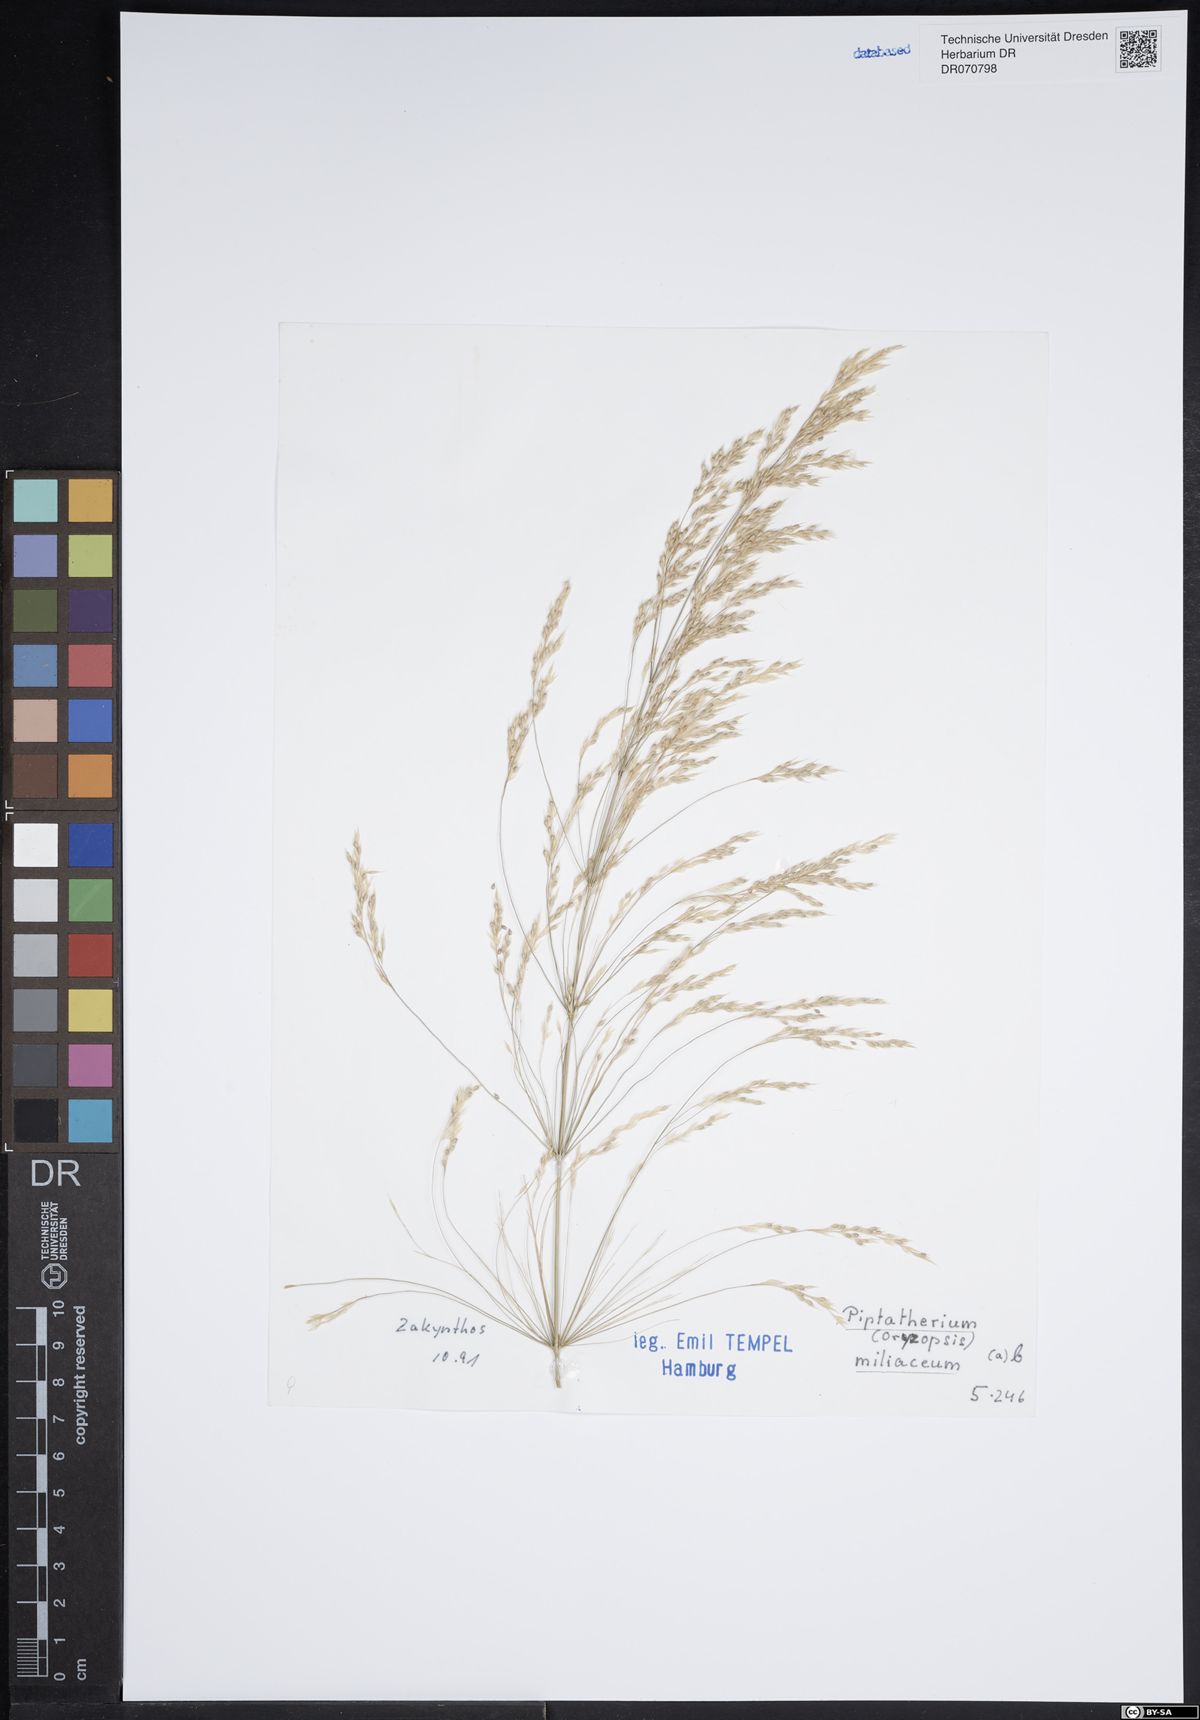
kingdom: Plantae
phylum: Tracheophyta
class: Liliopsida
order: Poales
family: Poaceae
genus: Oloptum
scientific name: Oloptum miliaceum
